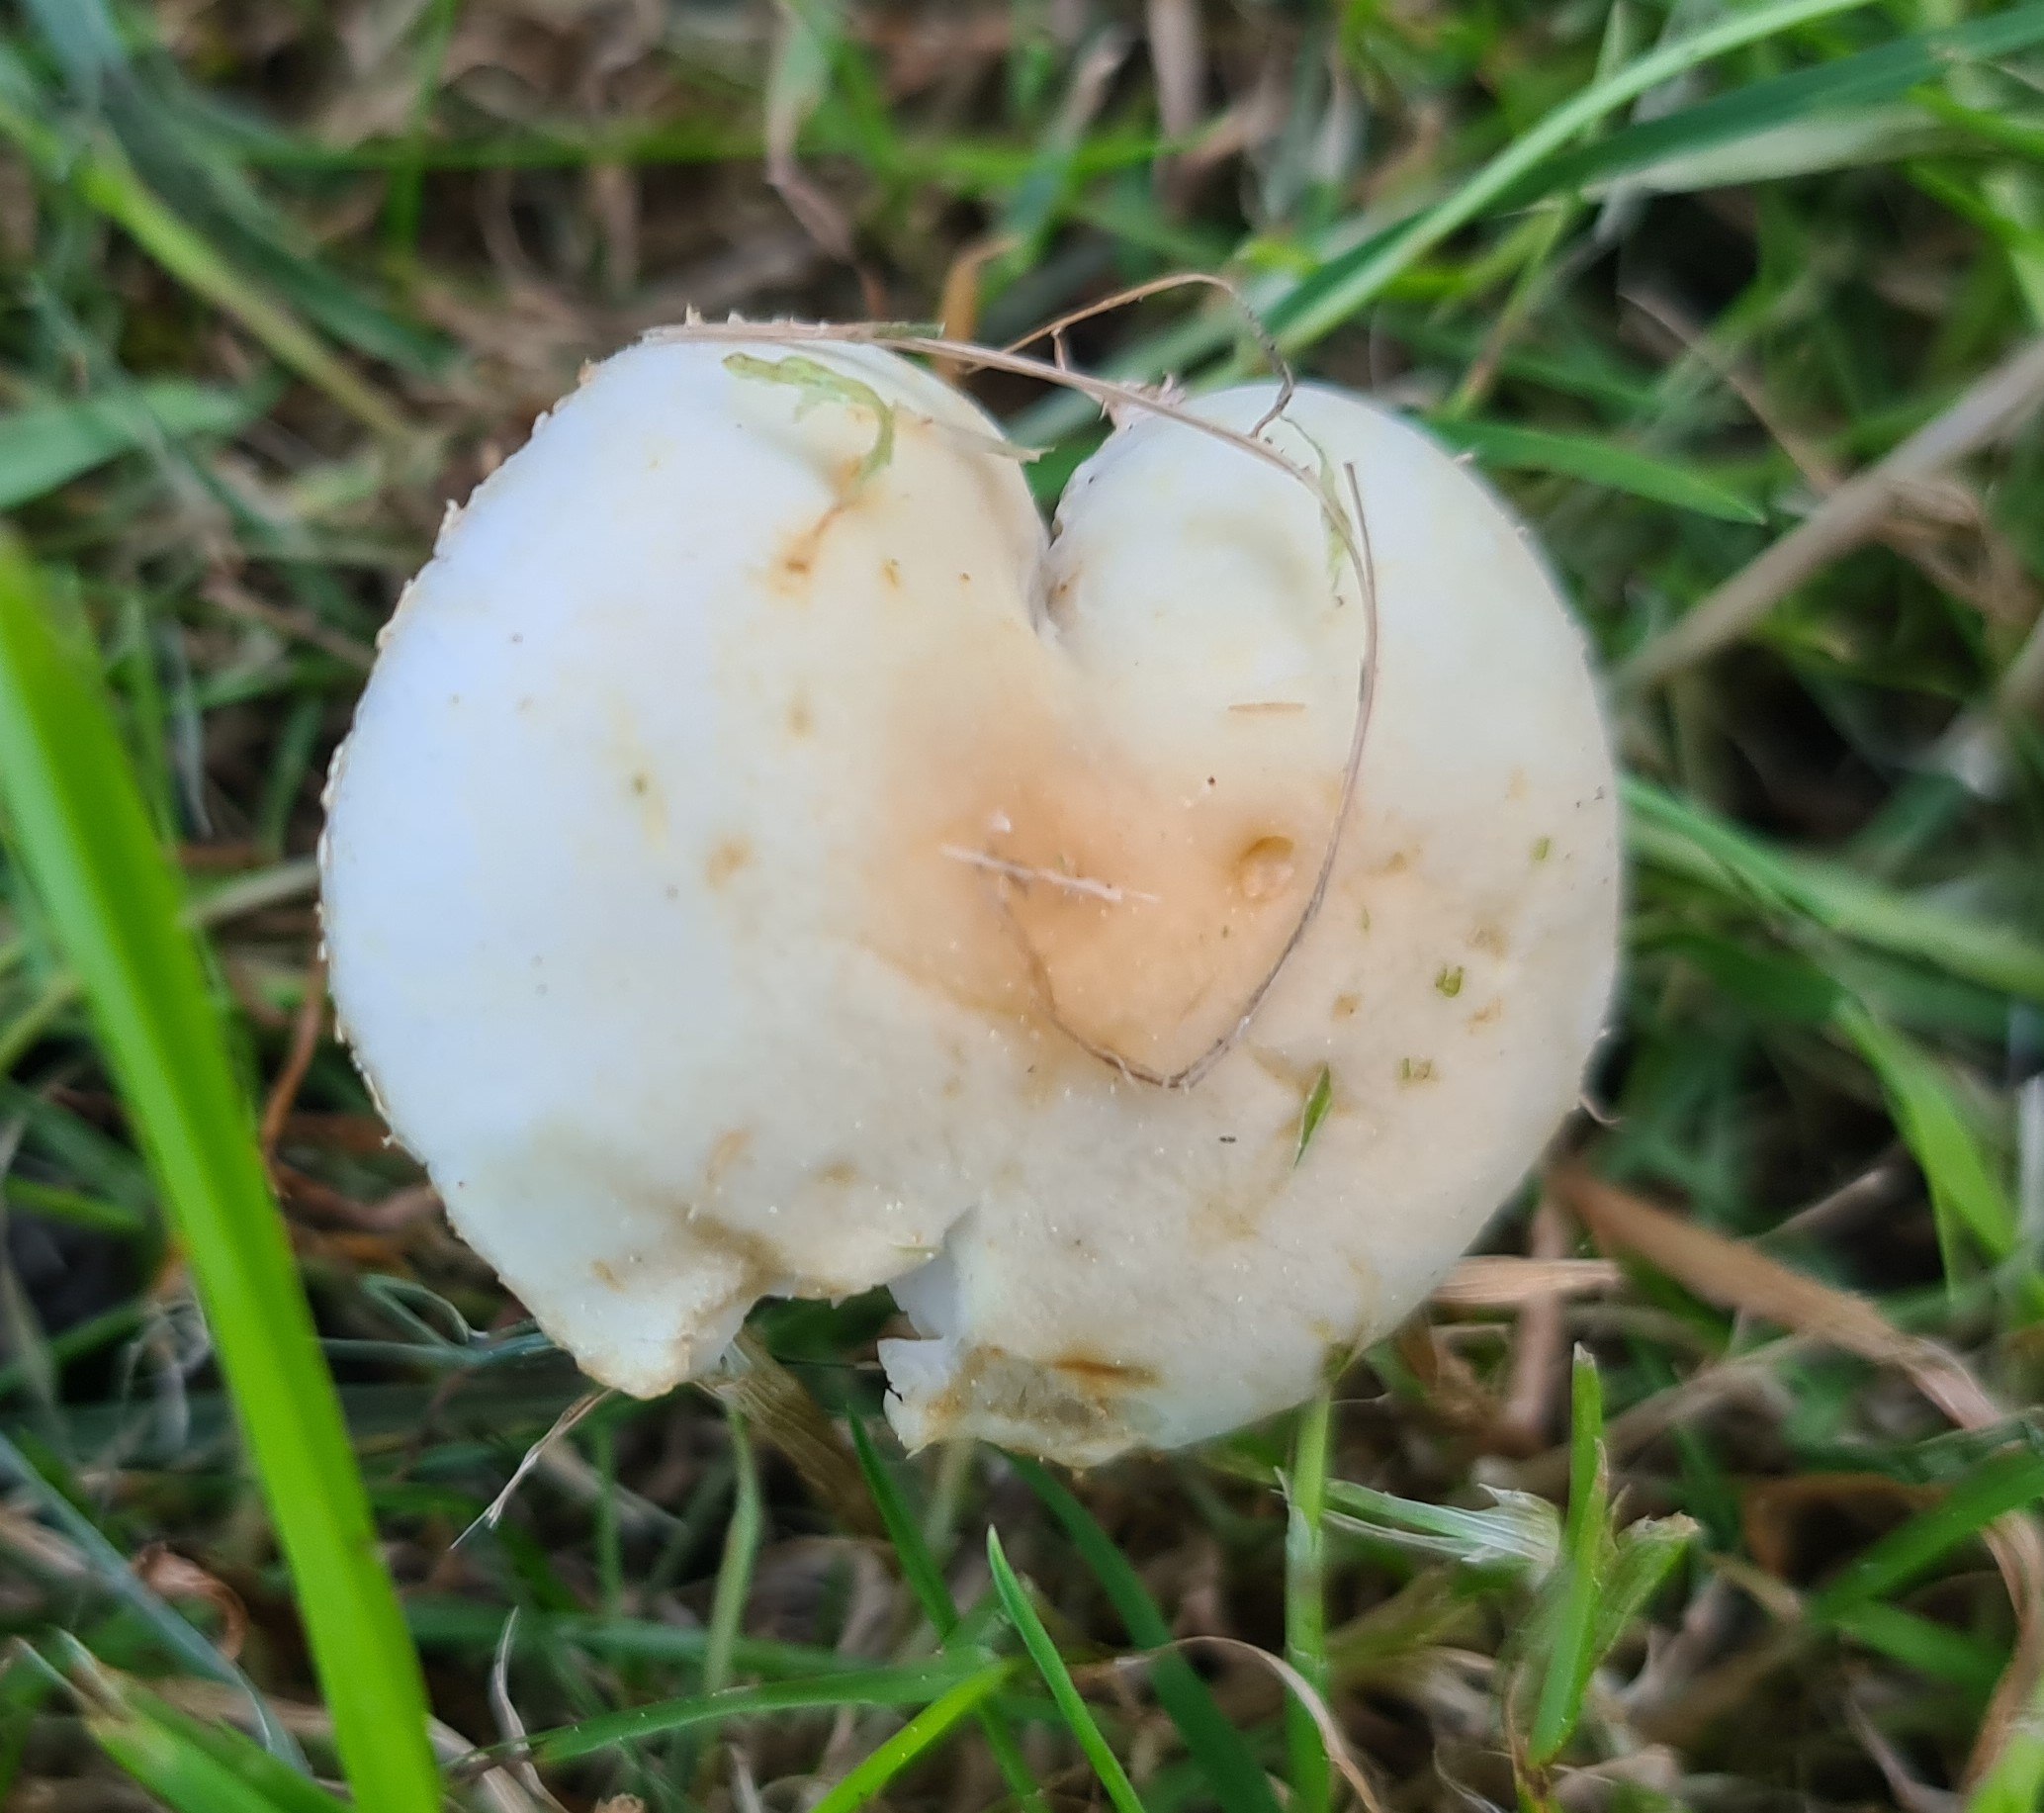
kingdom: Fungi
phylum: Basidiomycota
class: Agaricomycetes
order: Agaricales
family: Strophariaceae
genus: Agrocybe
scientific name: Agrocybe praecox
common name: tidlig agerhat
